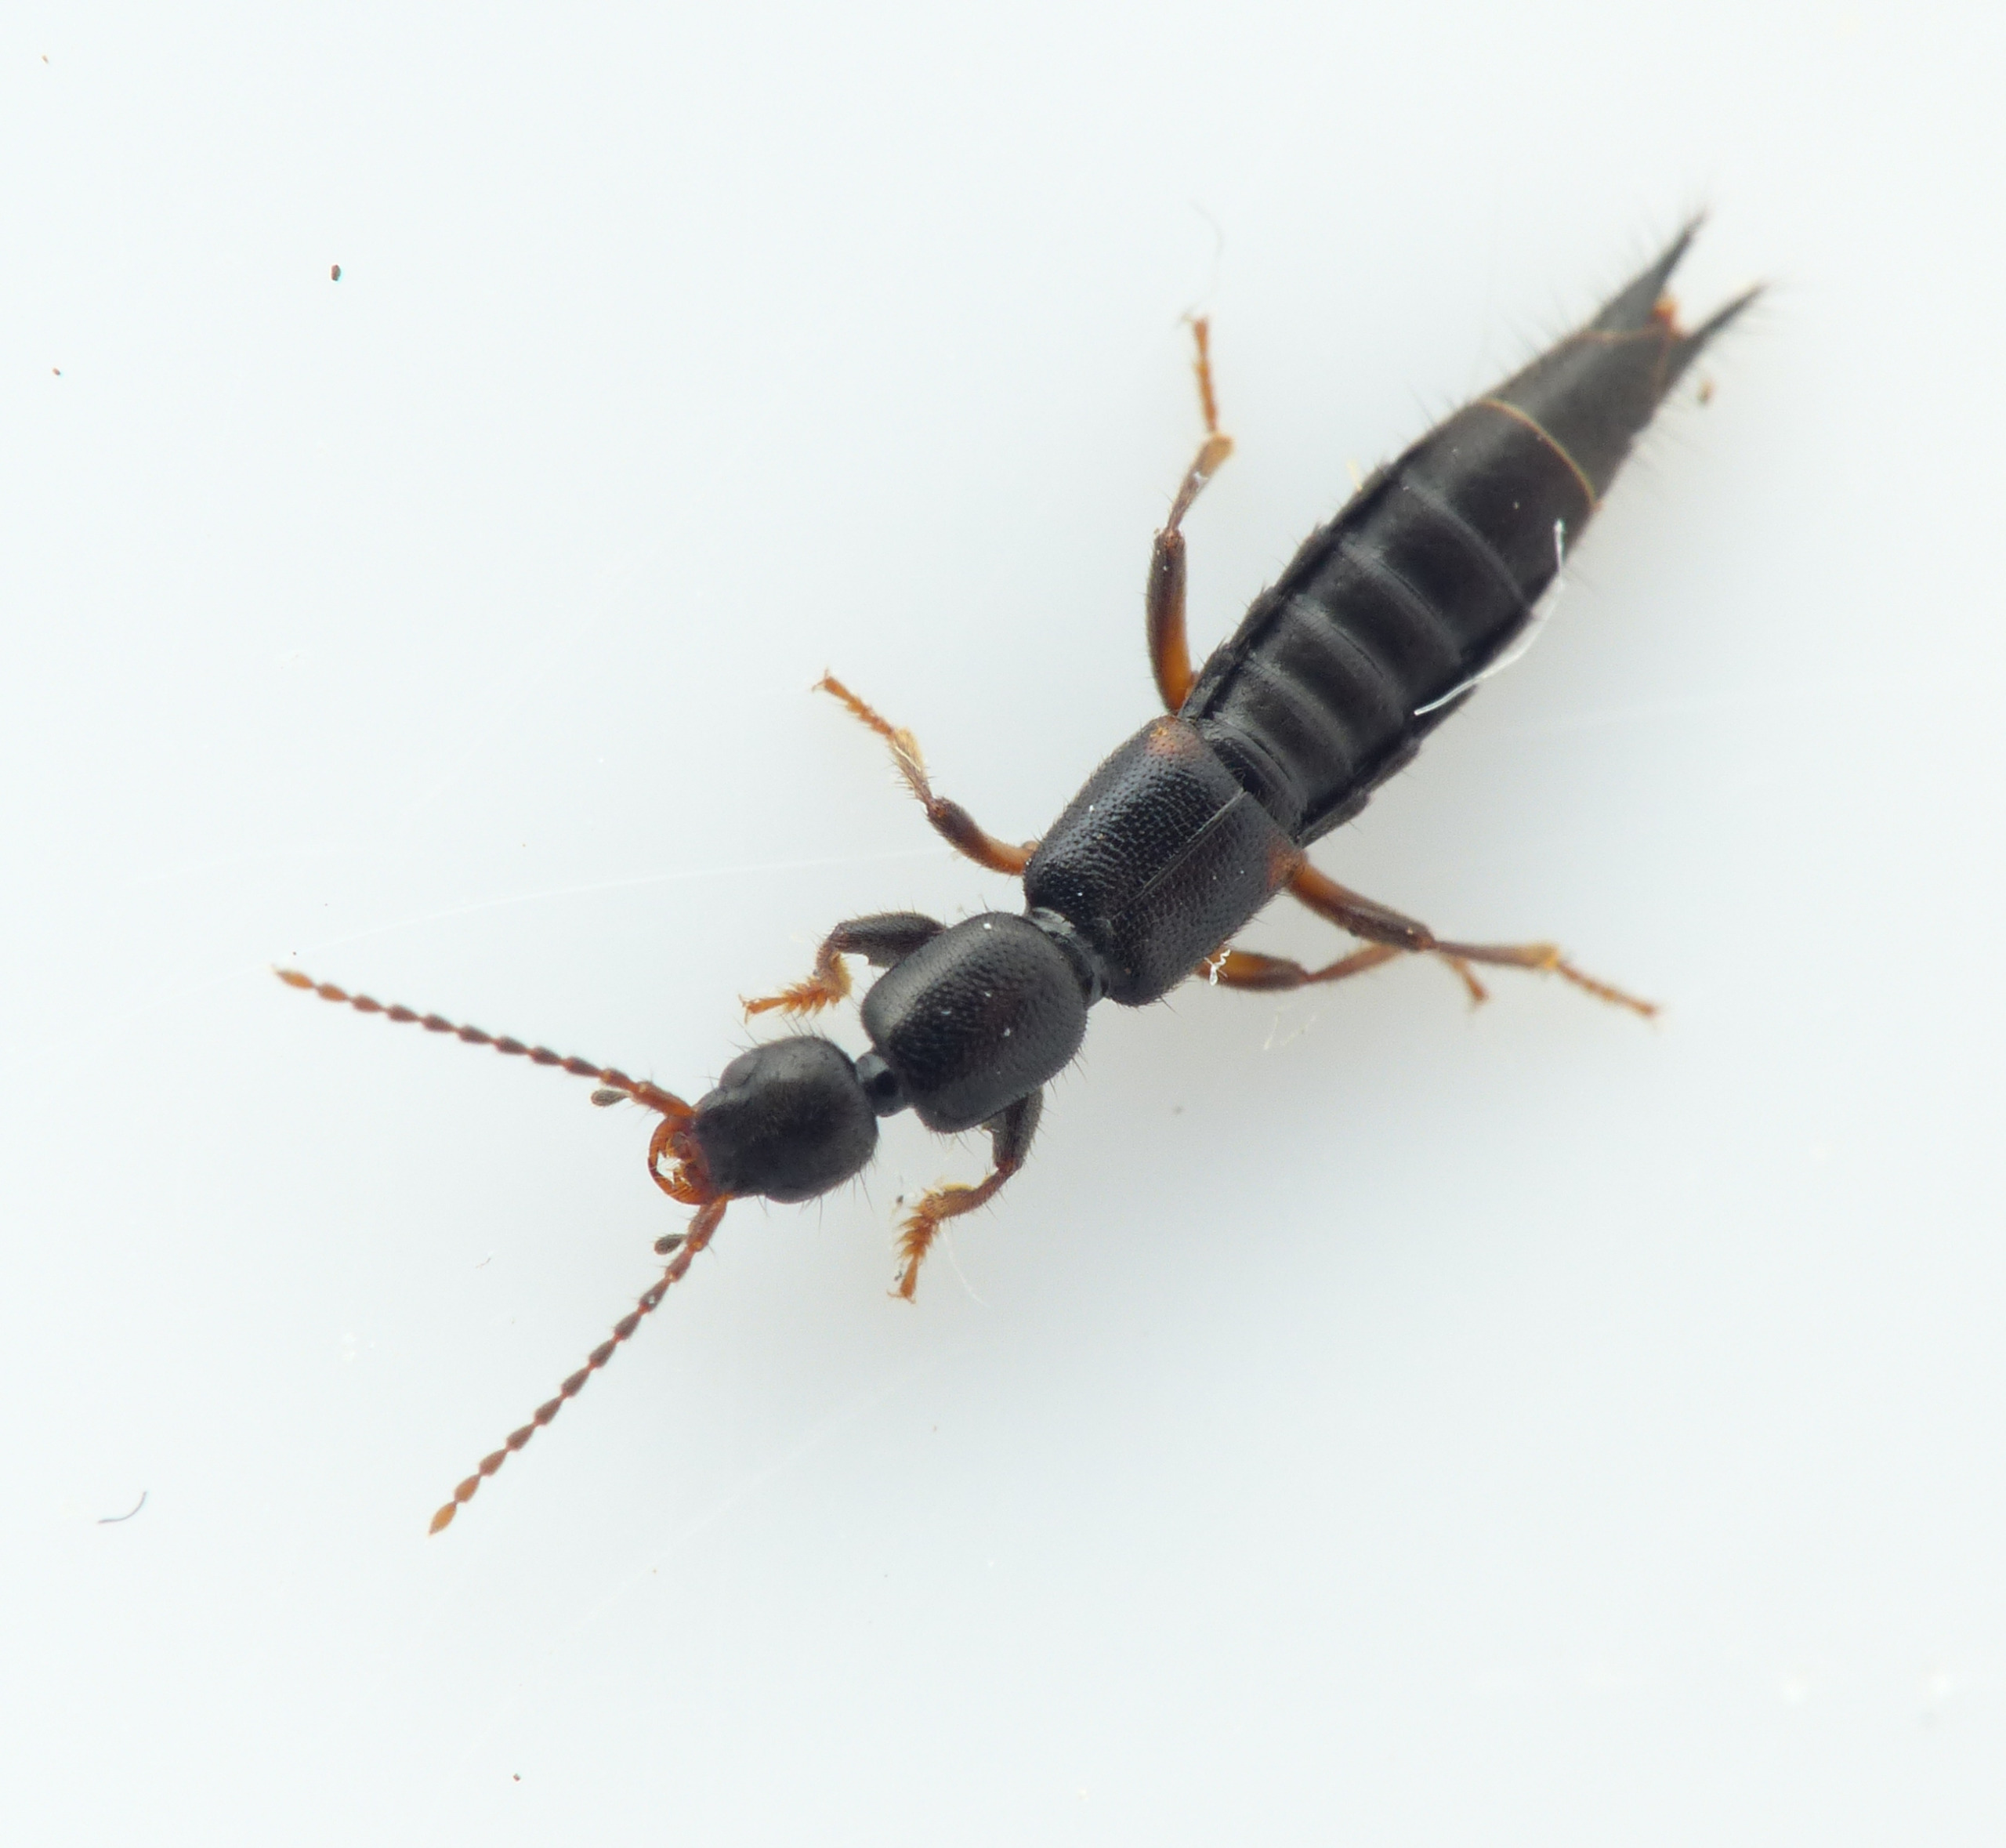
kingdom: Animalia
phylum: Arthropoda
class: Insecta
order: Coleoptera
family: Staphylinidae
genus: Tetartopeus
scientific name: Tetartopeus terminatus
